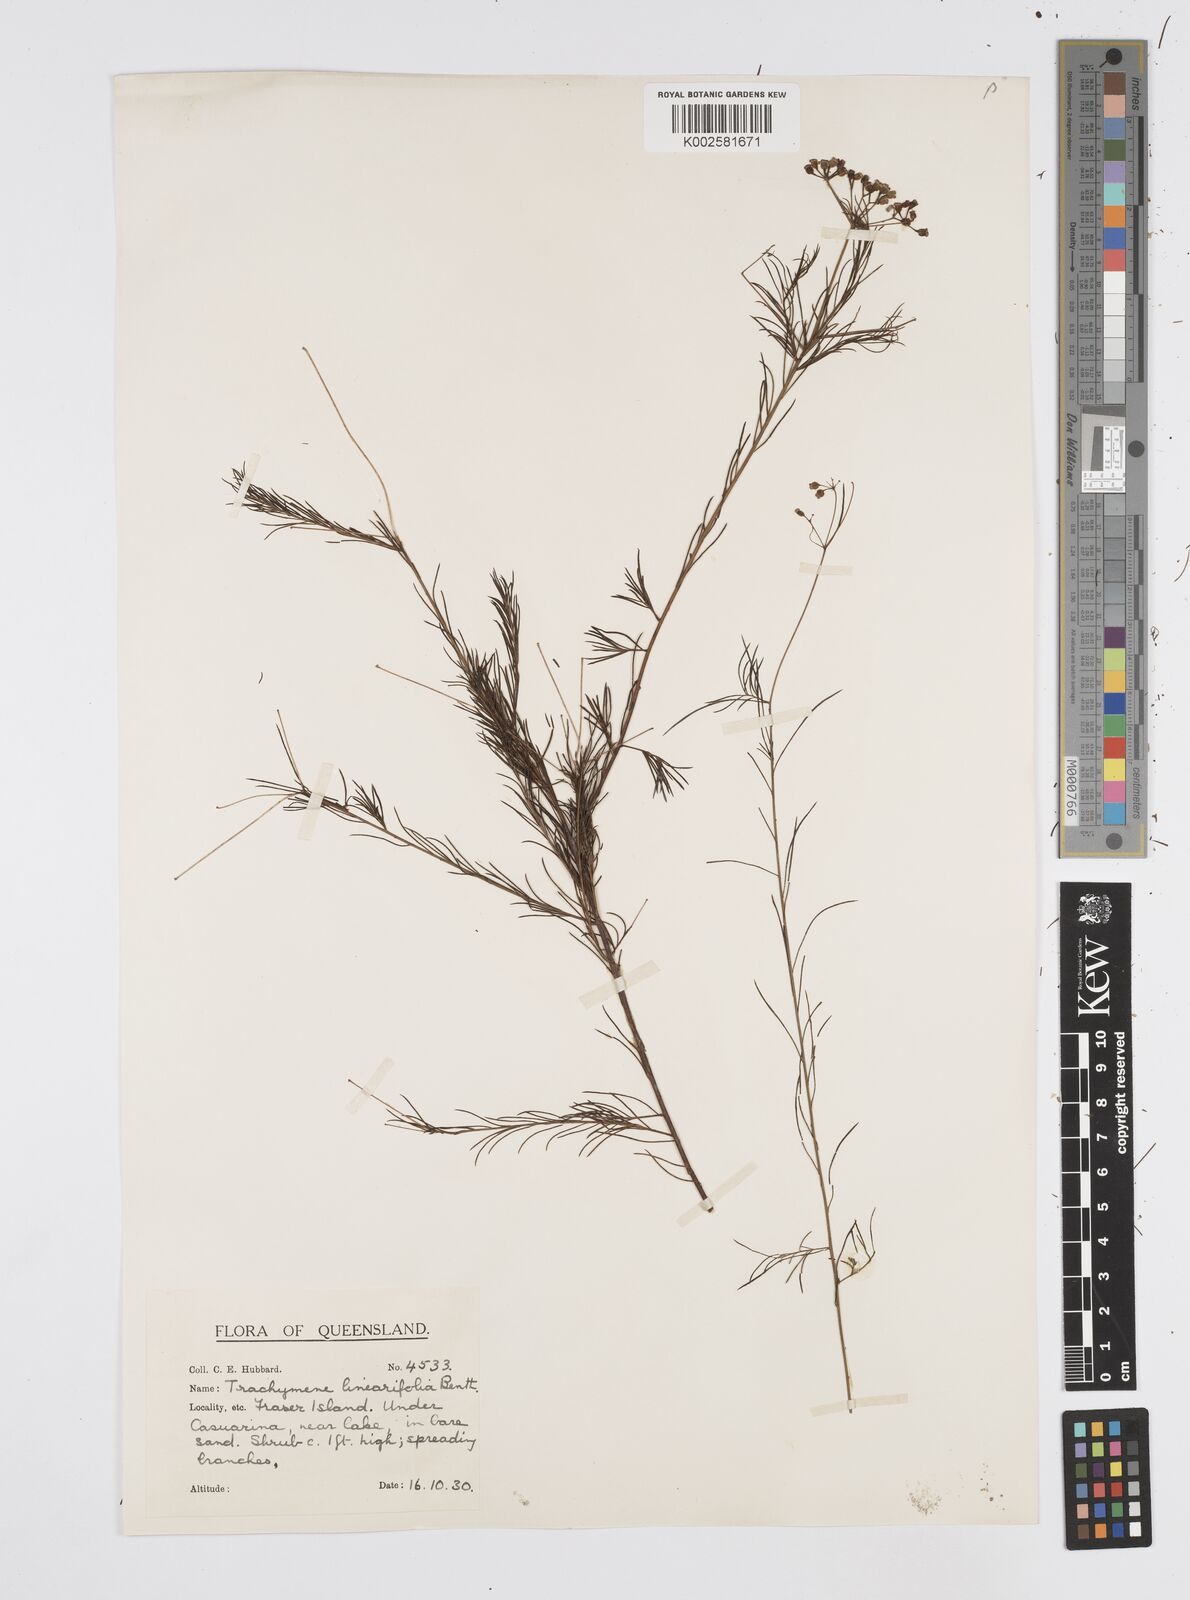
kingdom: Plantae
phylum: Tracheophyta
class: Magnoliopsida
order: Apiales
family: Apiaceae
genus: Platysace
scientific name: Platysace linearifolia
